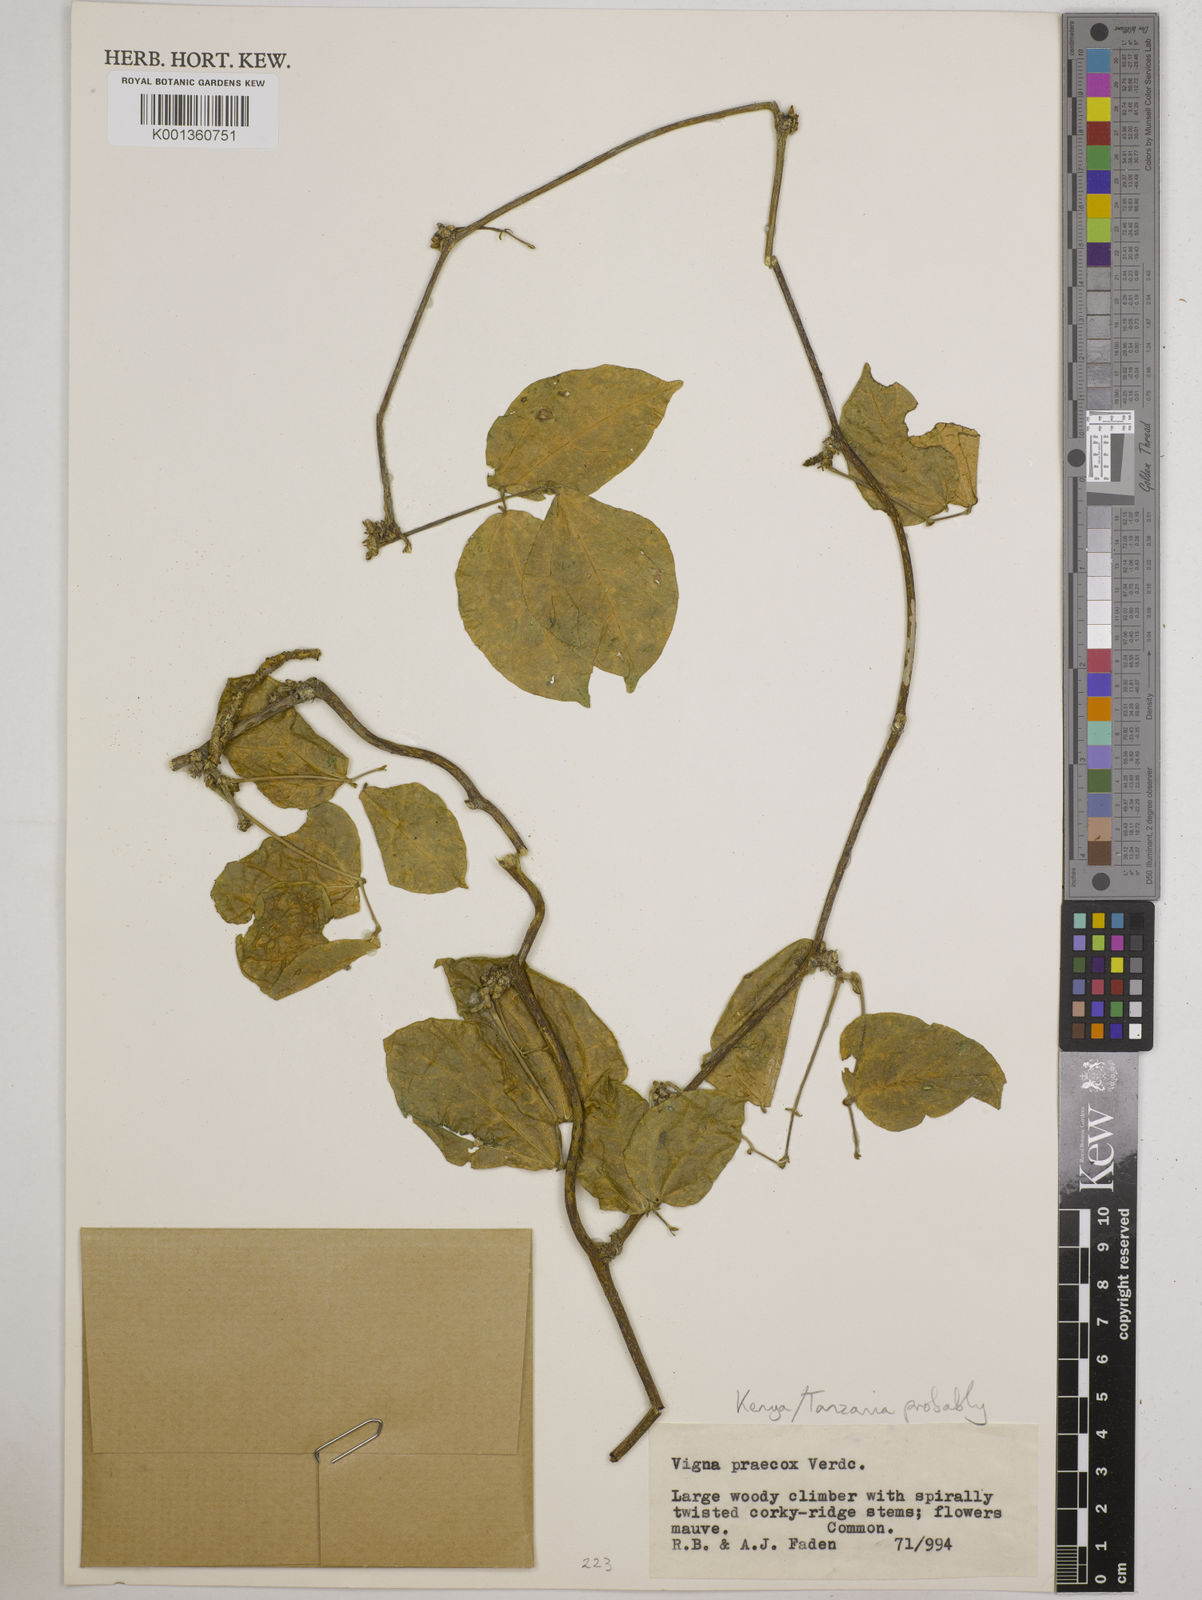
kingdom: Plantae
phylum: Tracheophyta
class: Magnoliopsida
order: Fabales
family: Fabaceae
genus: Wajira
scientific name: Wajira praecox
